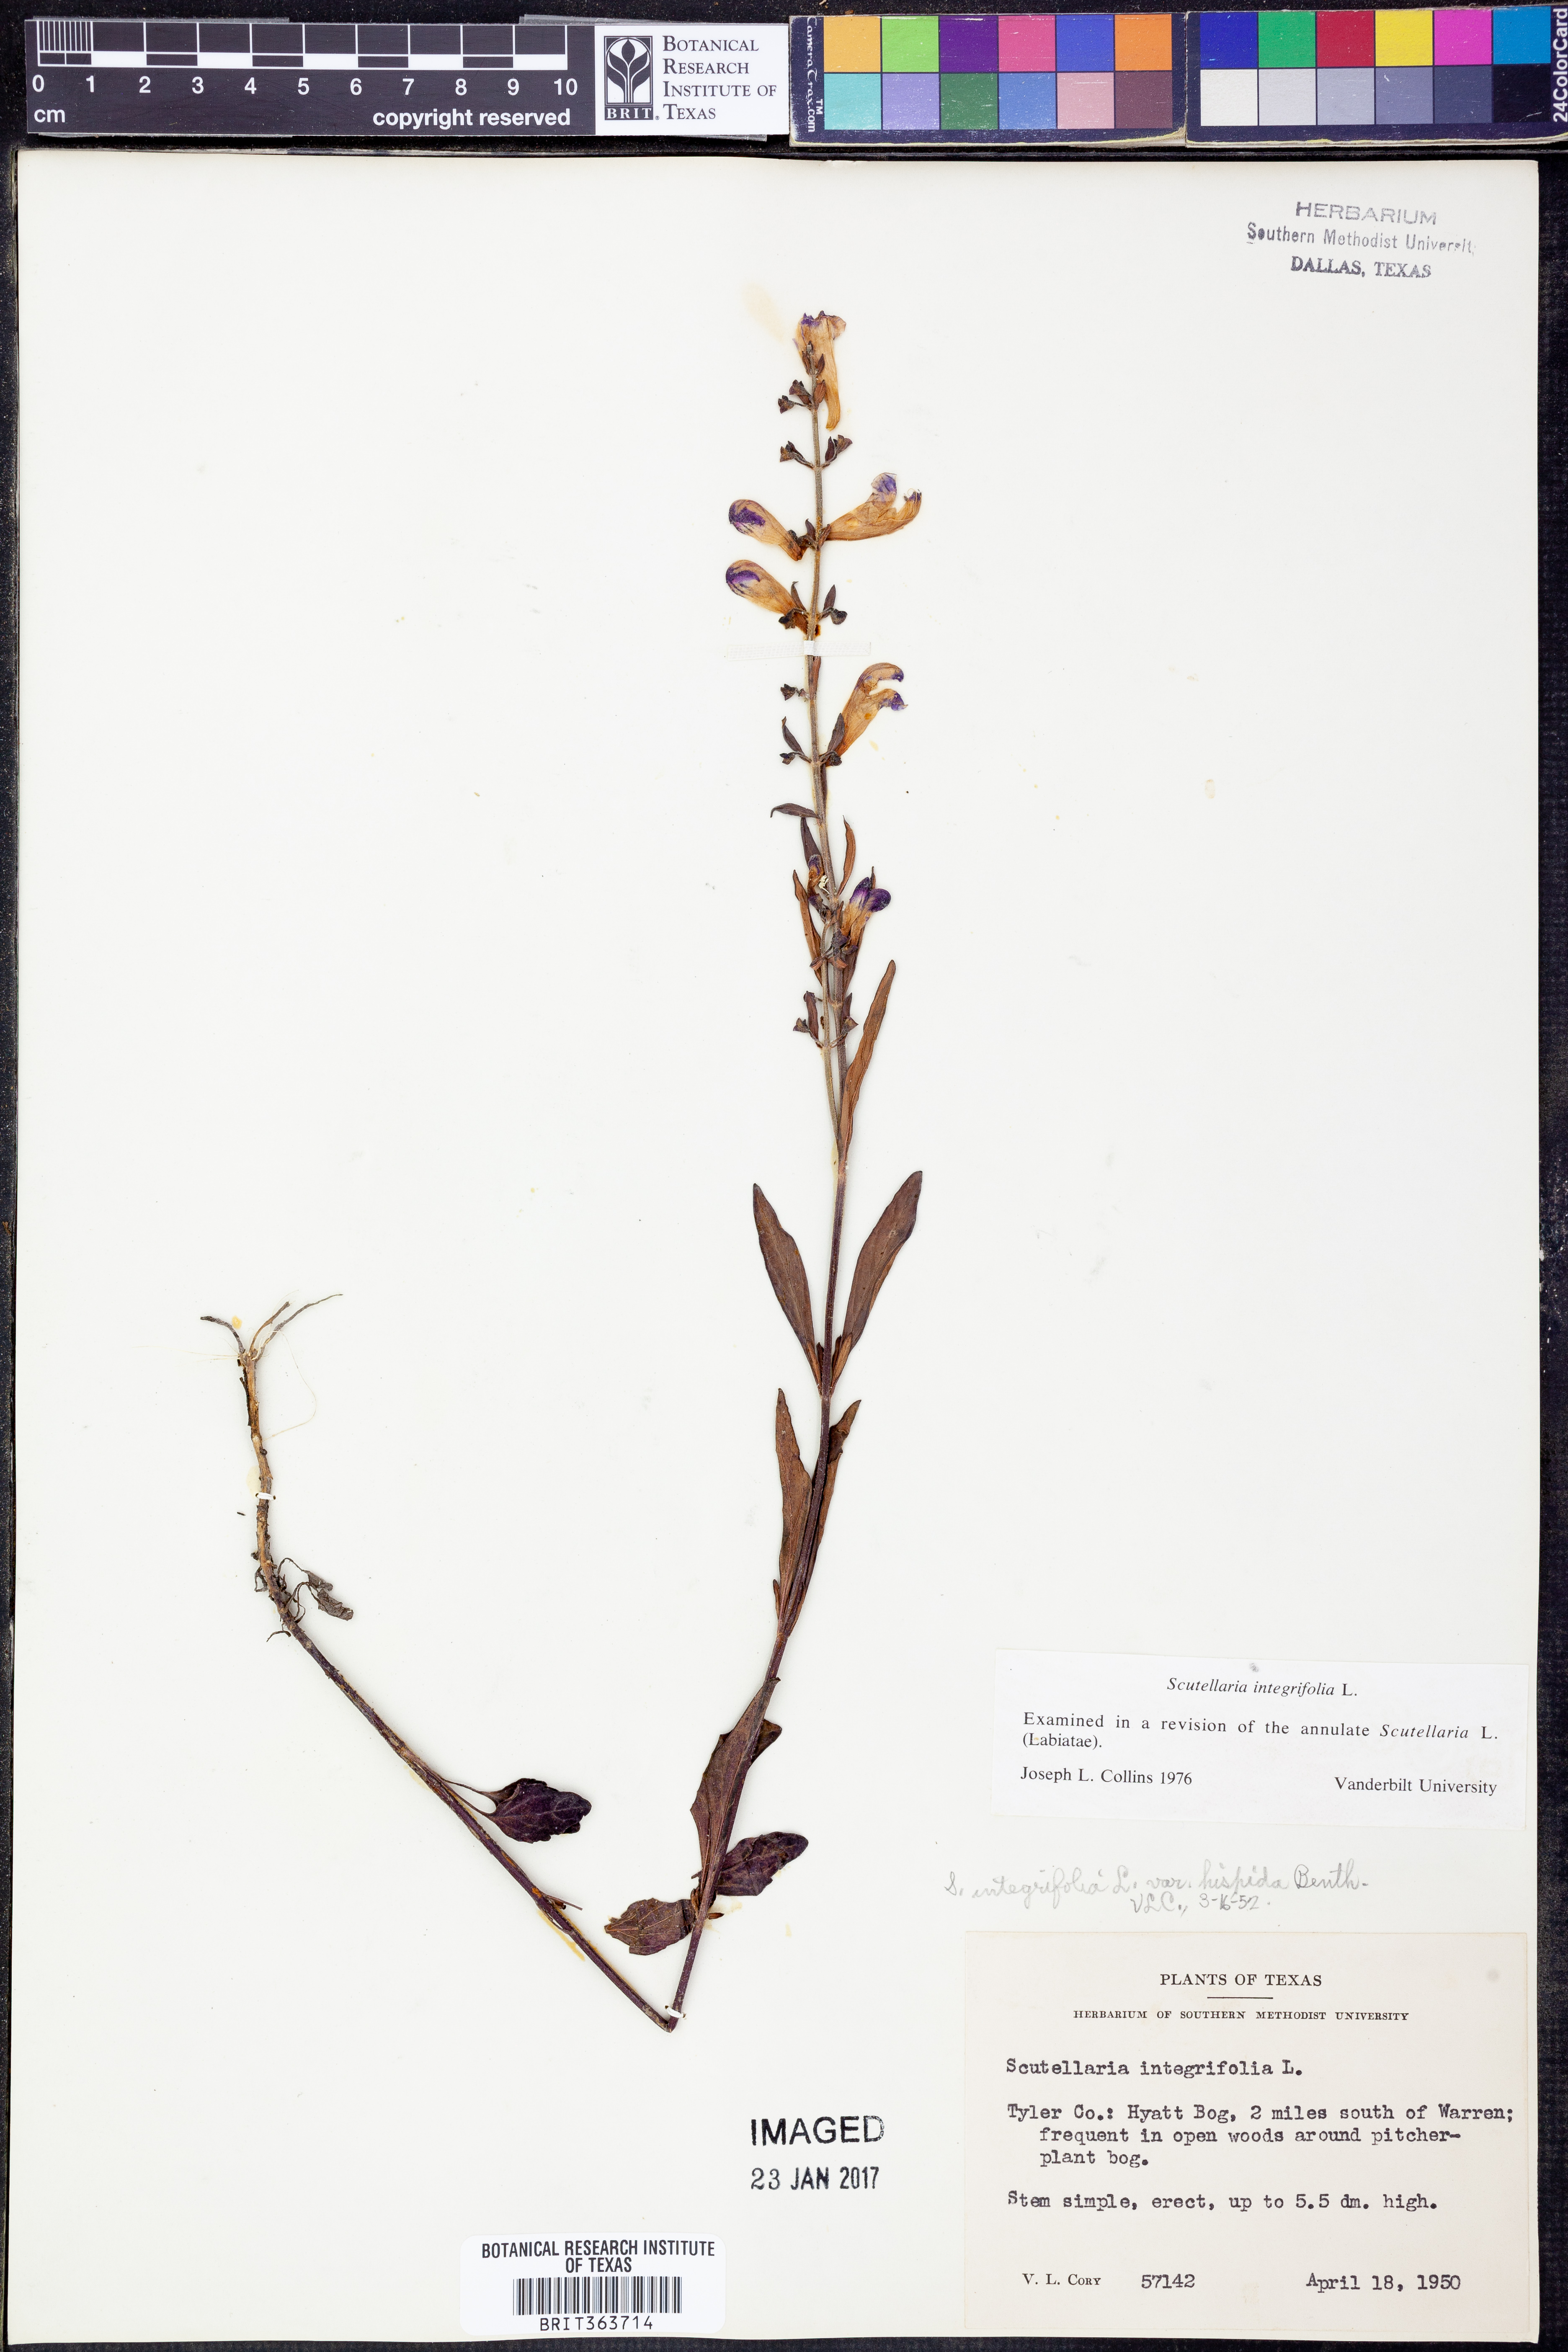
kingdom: Plantae
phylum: Tracheophyta
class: Magnoliopsida
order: Lamiales
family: Lamiaceae
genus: Scutellaria
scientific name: Scutellaria integrifolia
